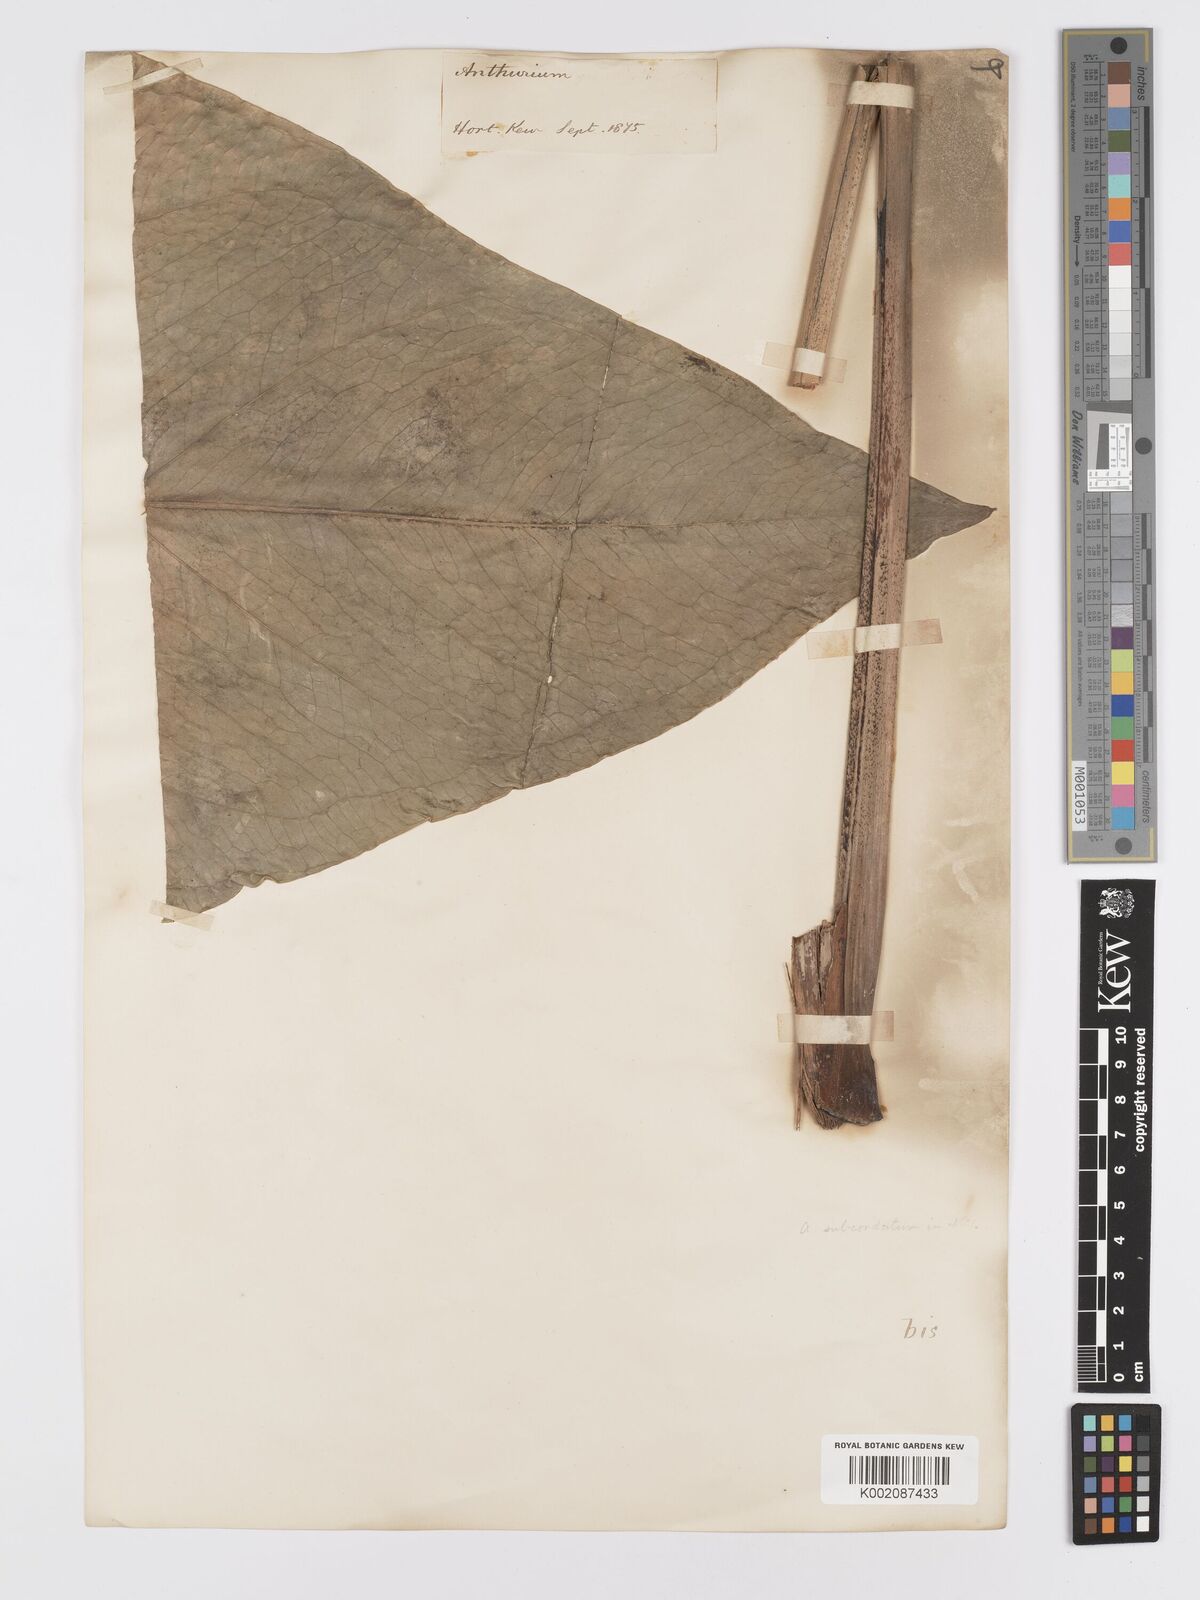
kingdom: Plantae
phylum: Tracheophyta
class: Liliopsida
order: Alismatales
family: Araceae
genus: Anthurium
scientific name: Anthurium
